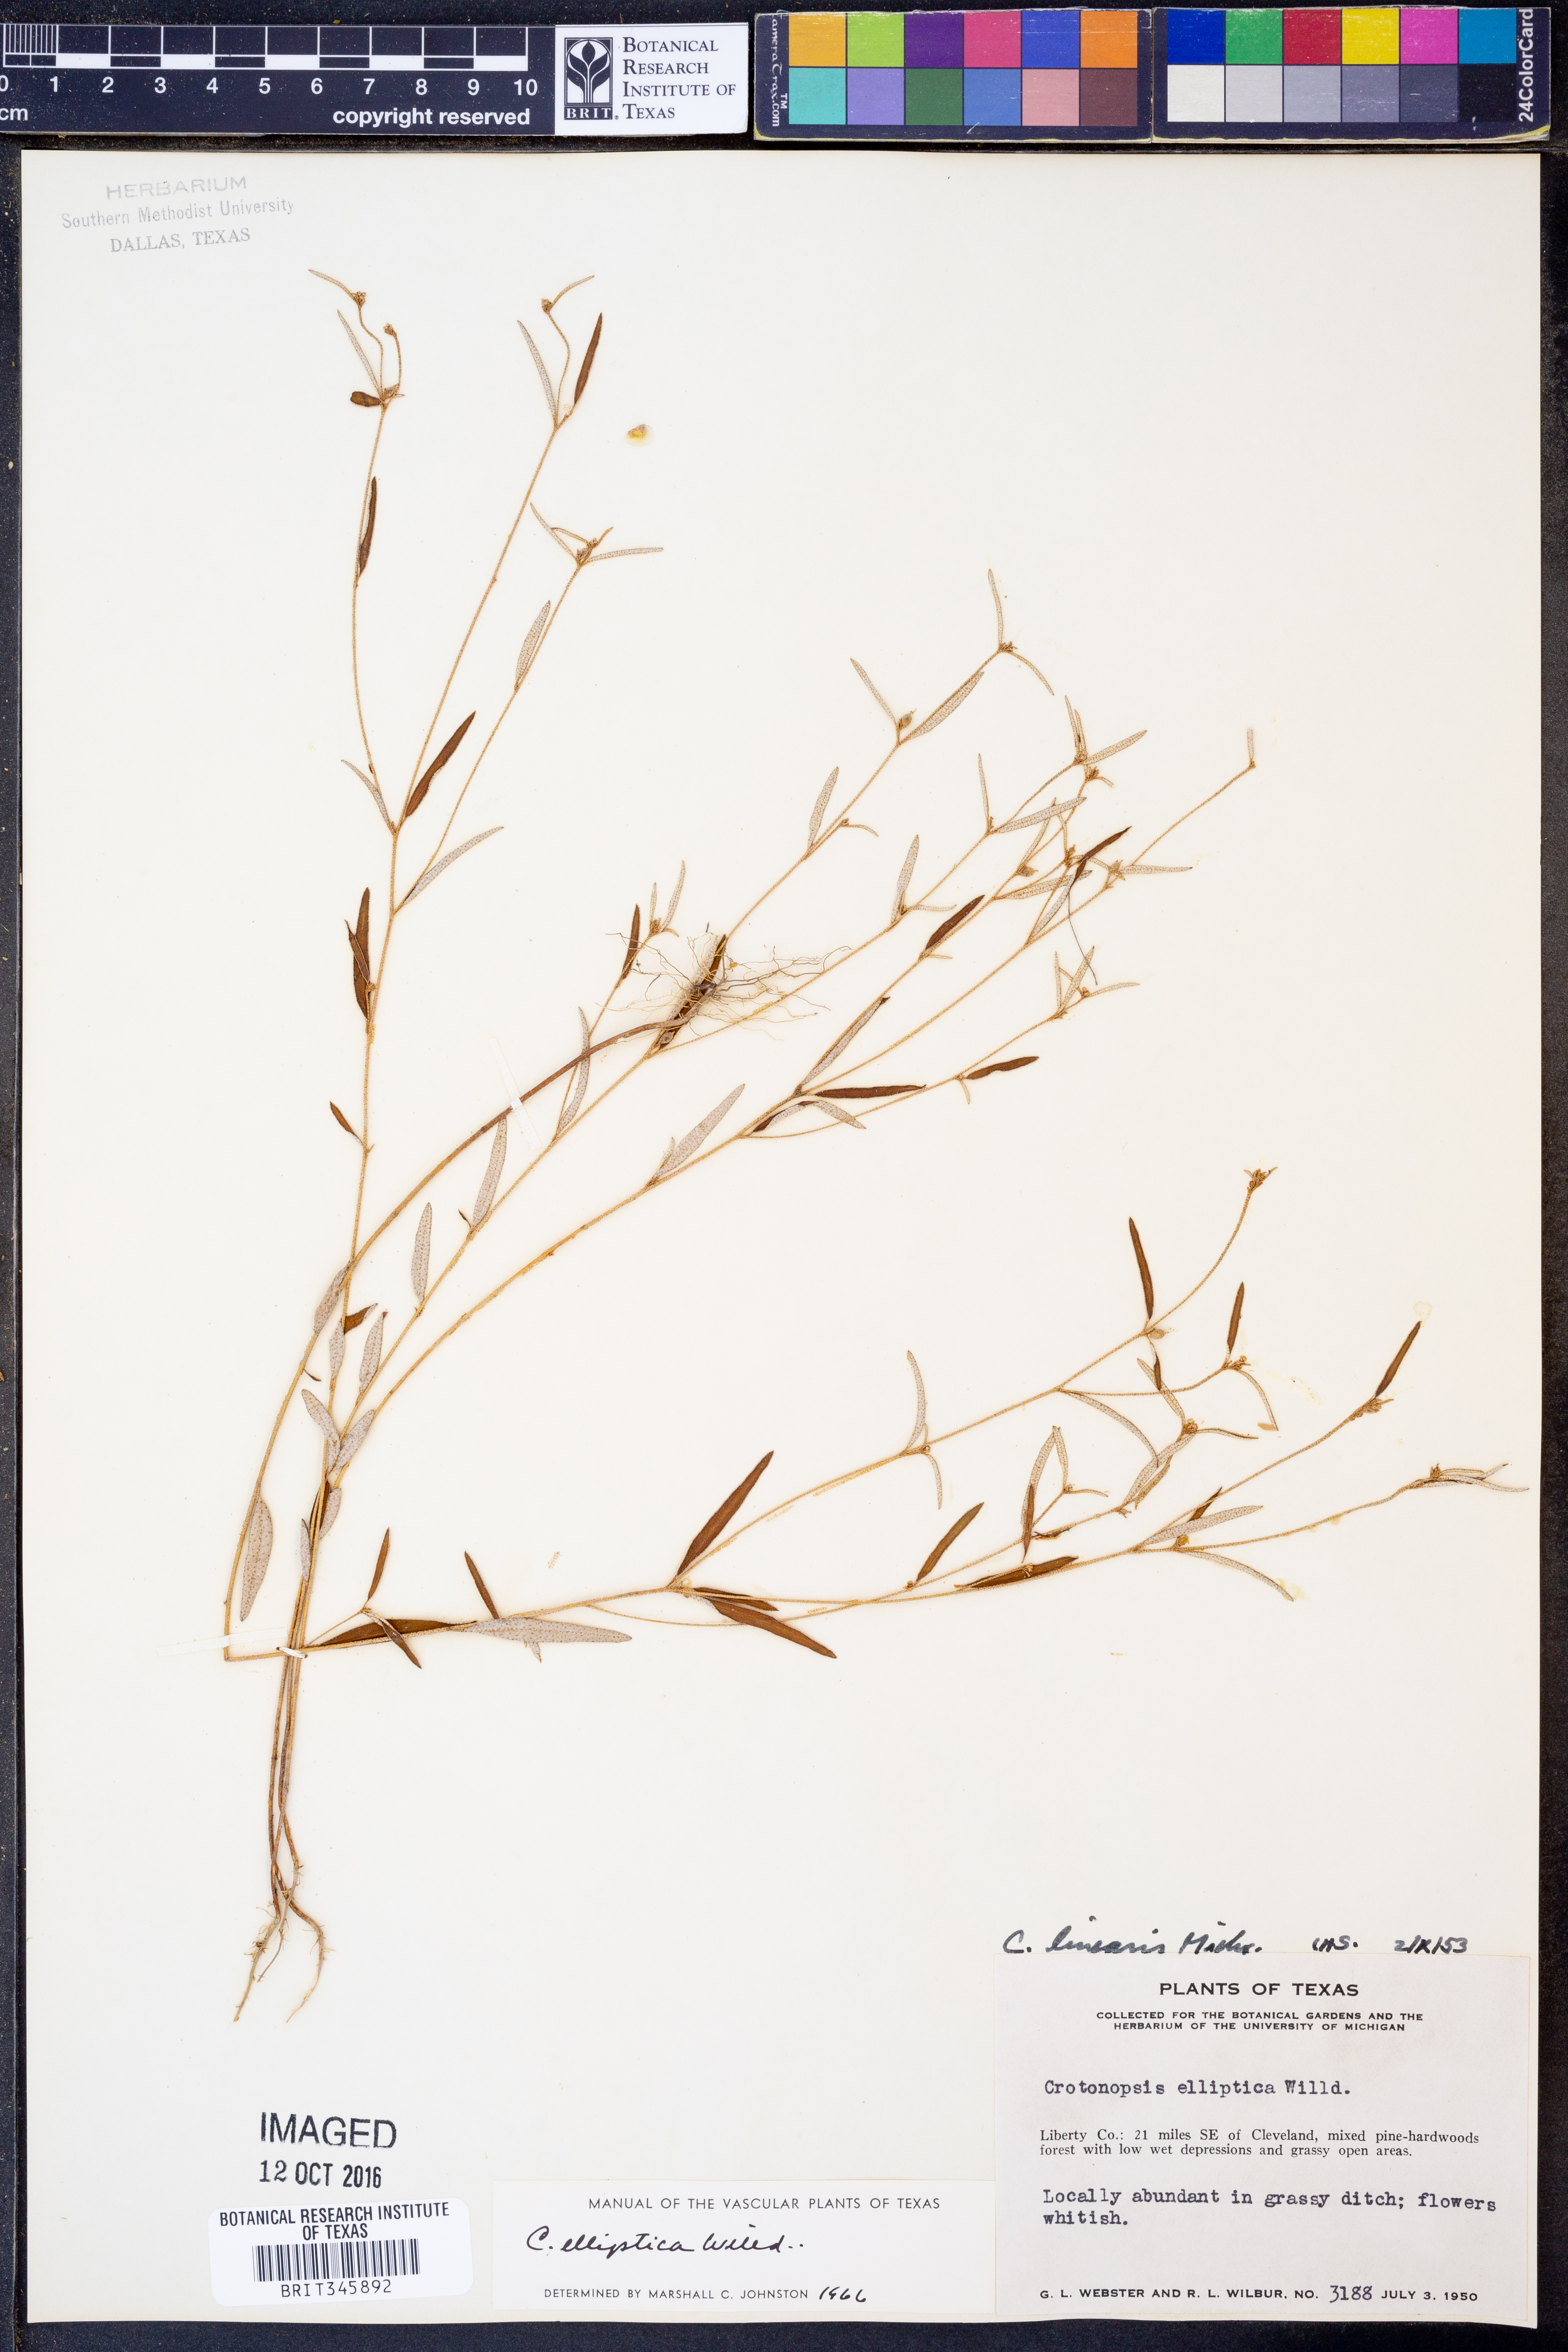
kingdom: Plantae
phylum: Tracheophyta
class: Magnoliopsida
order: Malpighiales
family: Euphorbiaceae
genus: Croton
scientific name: Croton michauxii
